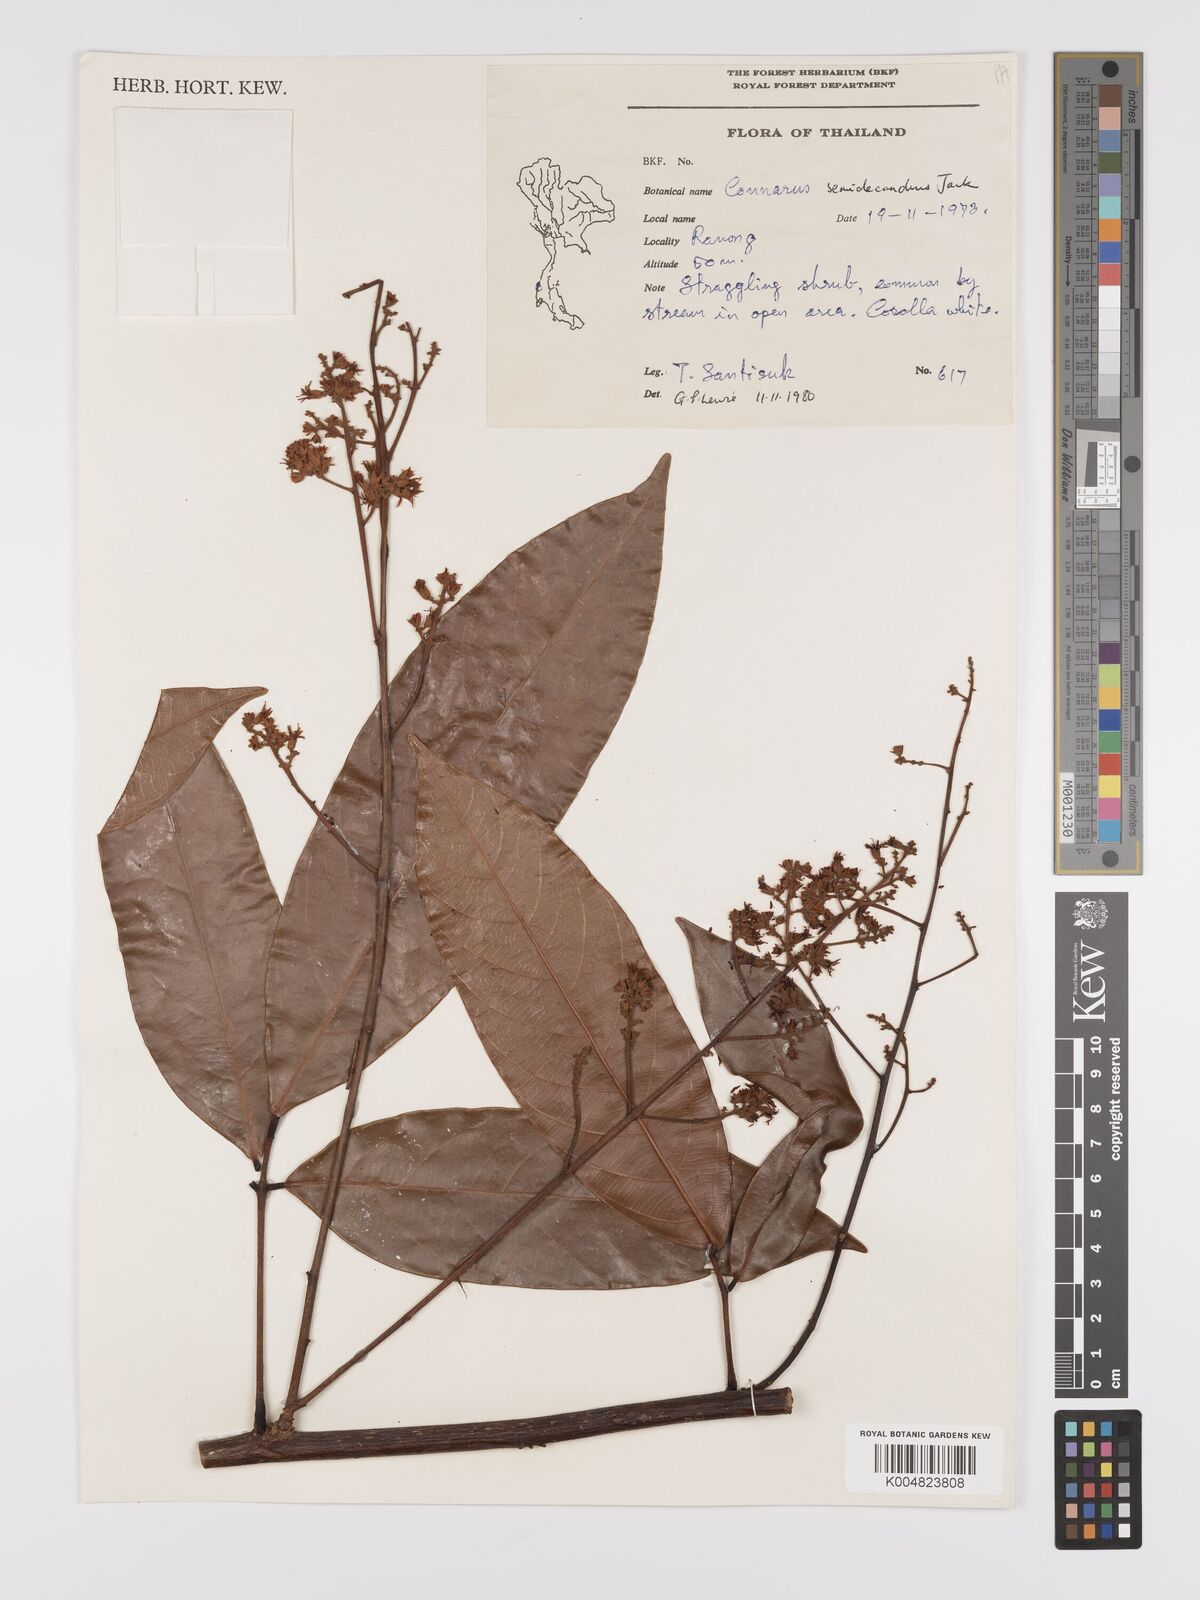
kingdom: Plantae
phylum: Tracheophyta
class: Magnoliopsida
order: Oxalidales
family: Connaraceae
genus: Connarus
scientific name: Connarus semidecandrus
